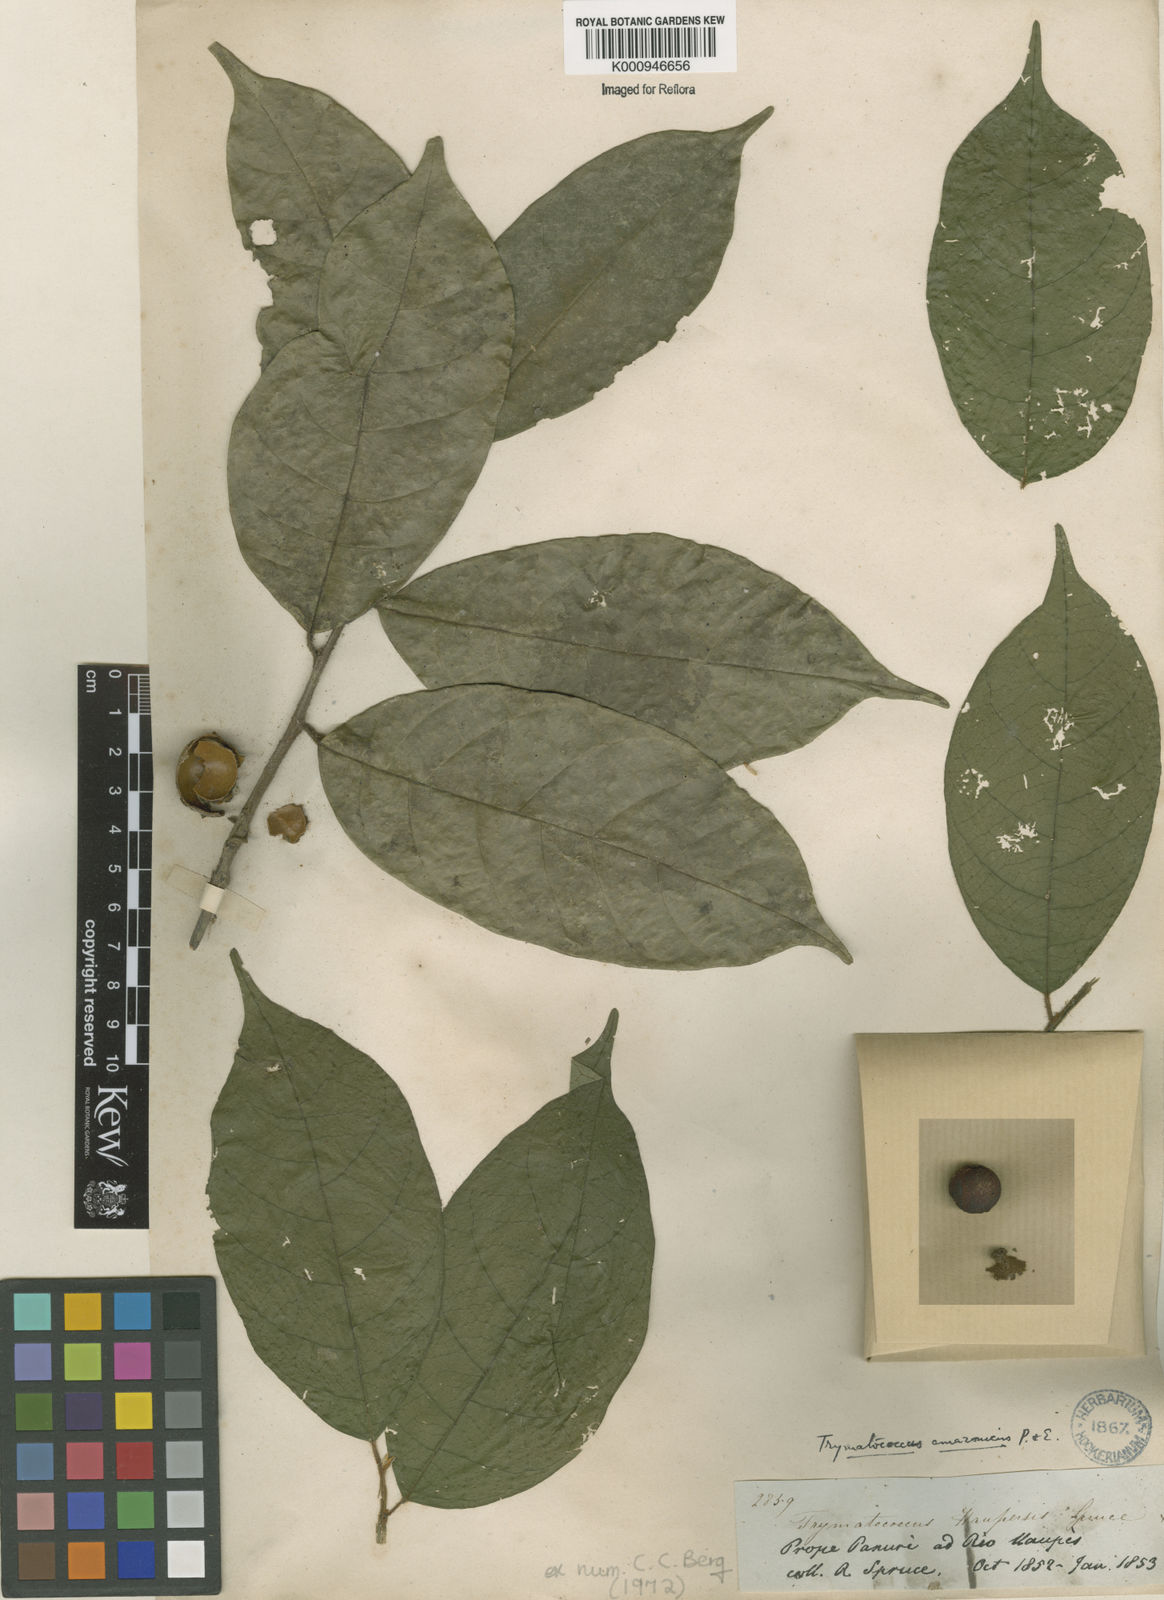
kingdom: Plantae
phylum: Tracheophyta
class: Magnoliopsida
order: Rosales
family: Moraceae
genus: Brosimum
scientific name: Brosimum amazonicum
